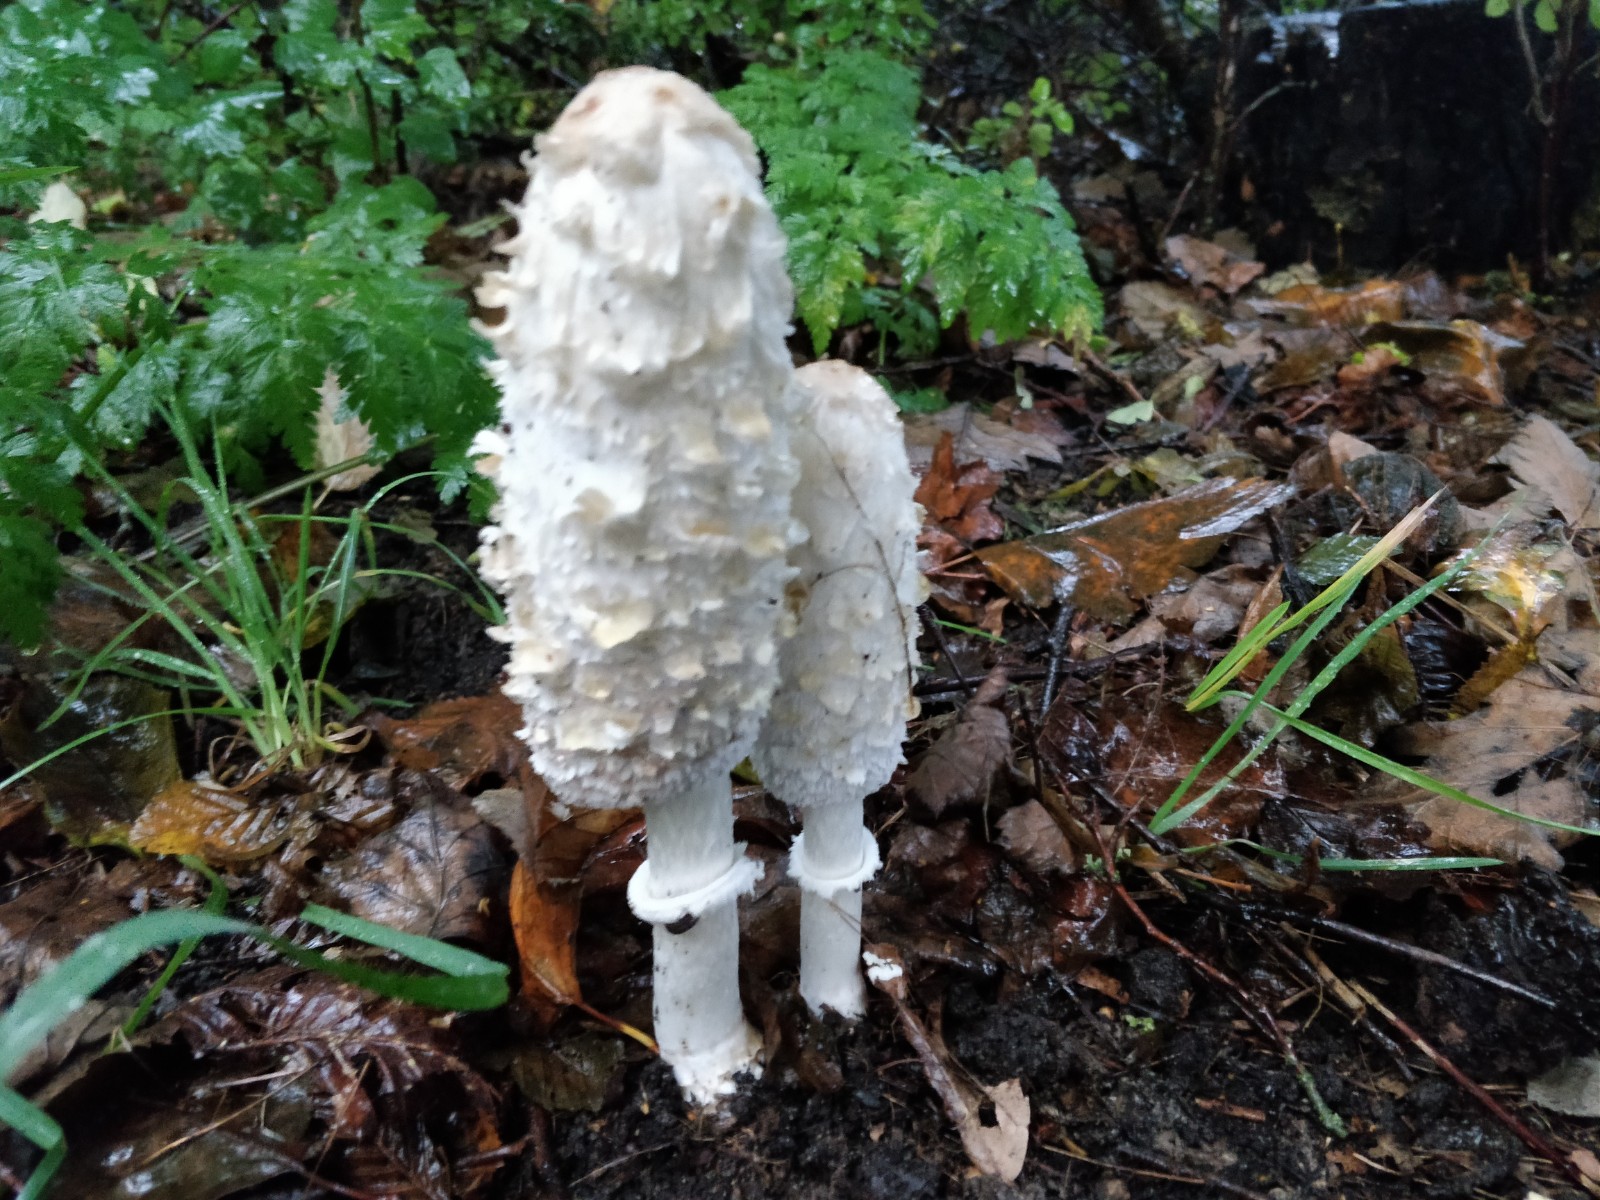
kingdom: Fungi
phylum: Basidiomycota
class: Agaricomycetes
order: Agaricales
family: Agaricaceae
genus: Coprinus
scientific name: Coprinus comatus
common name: stor parykhat
